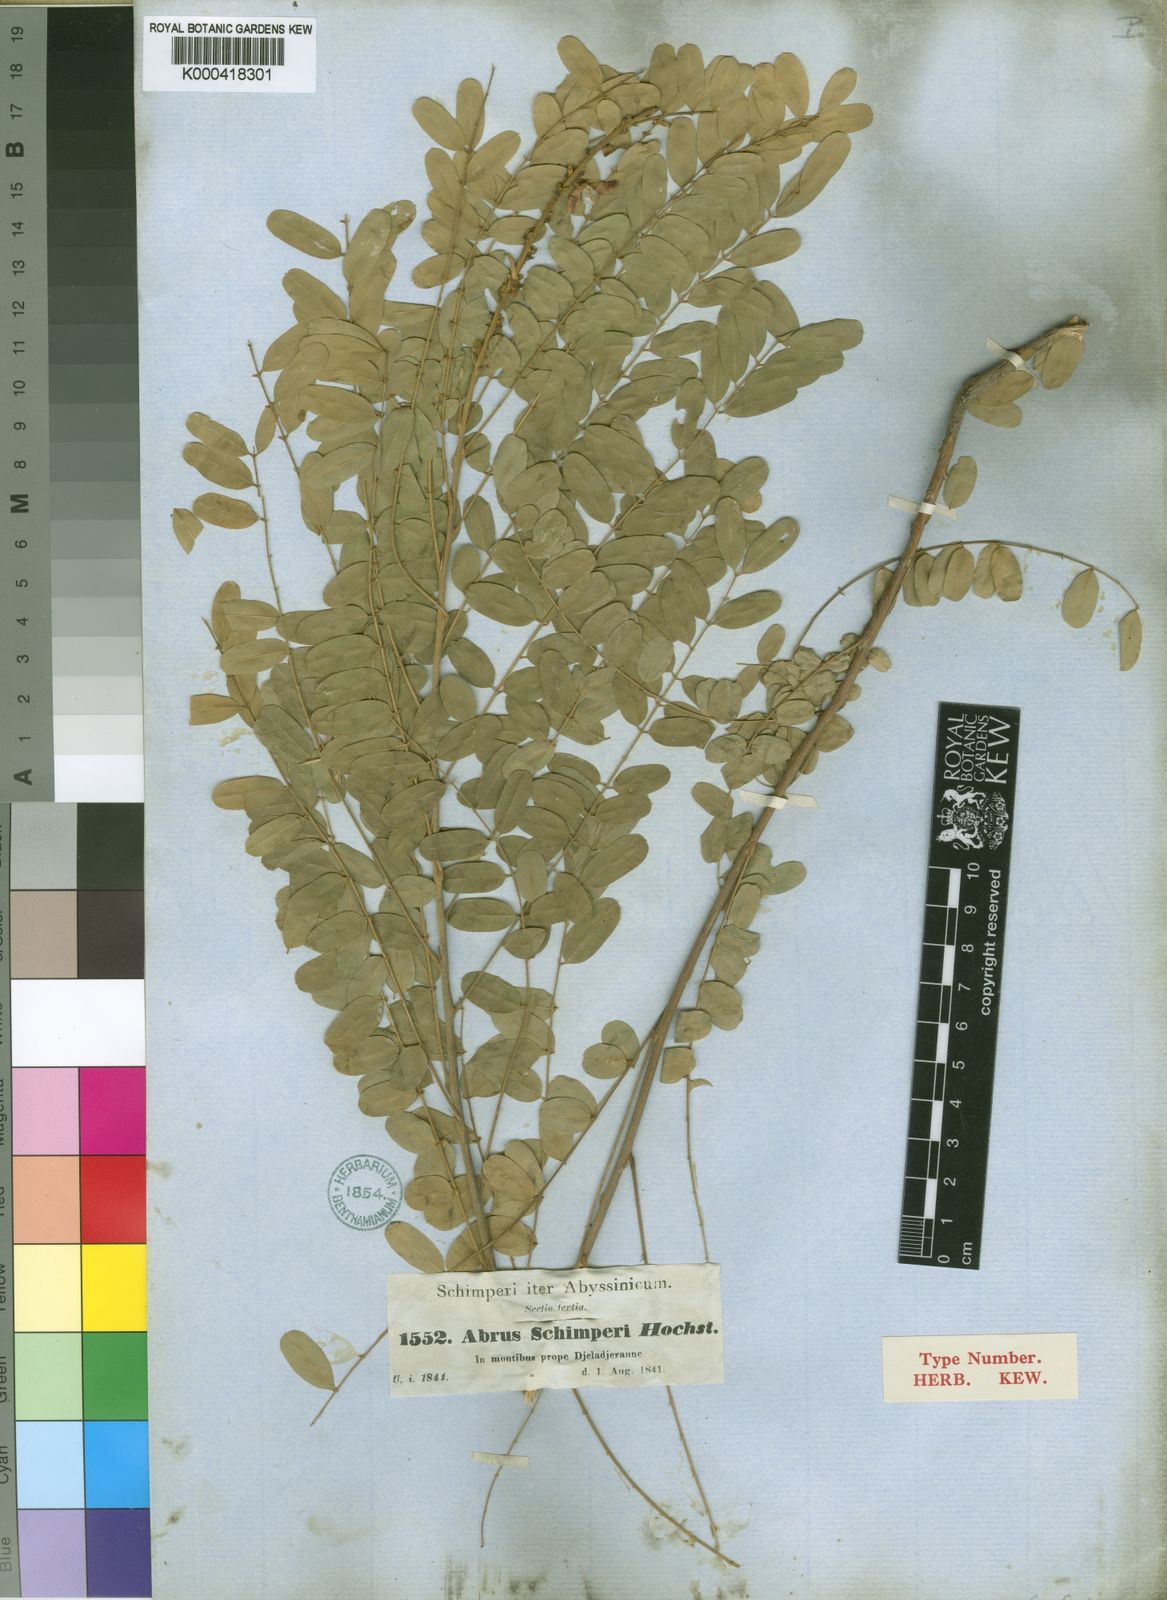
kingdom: Plantae
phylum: Tracheophyta
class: Magnoliopsida
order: Fabales
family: Fabaceae
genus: Abrus
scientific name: Abrus fruticulosus
